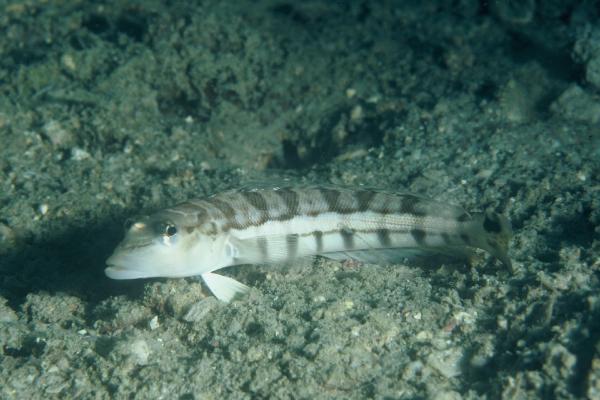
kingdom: Animalia
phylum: Chordata
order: Perciformes
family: Pinguipedidae
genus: Parapercis
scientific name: Parapercis robinsoni
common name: Smallscale sandsmelt
